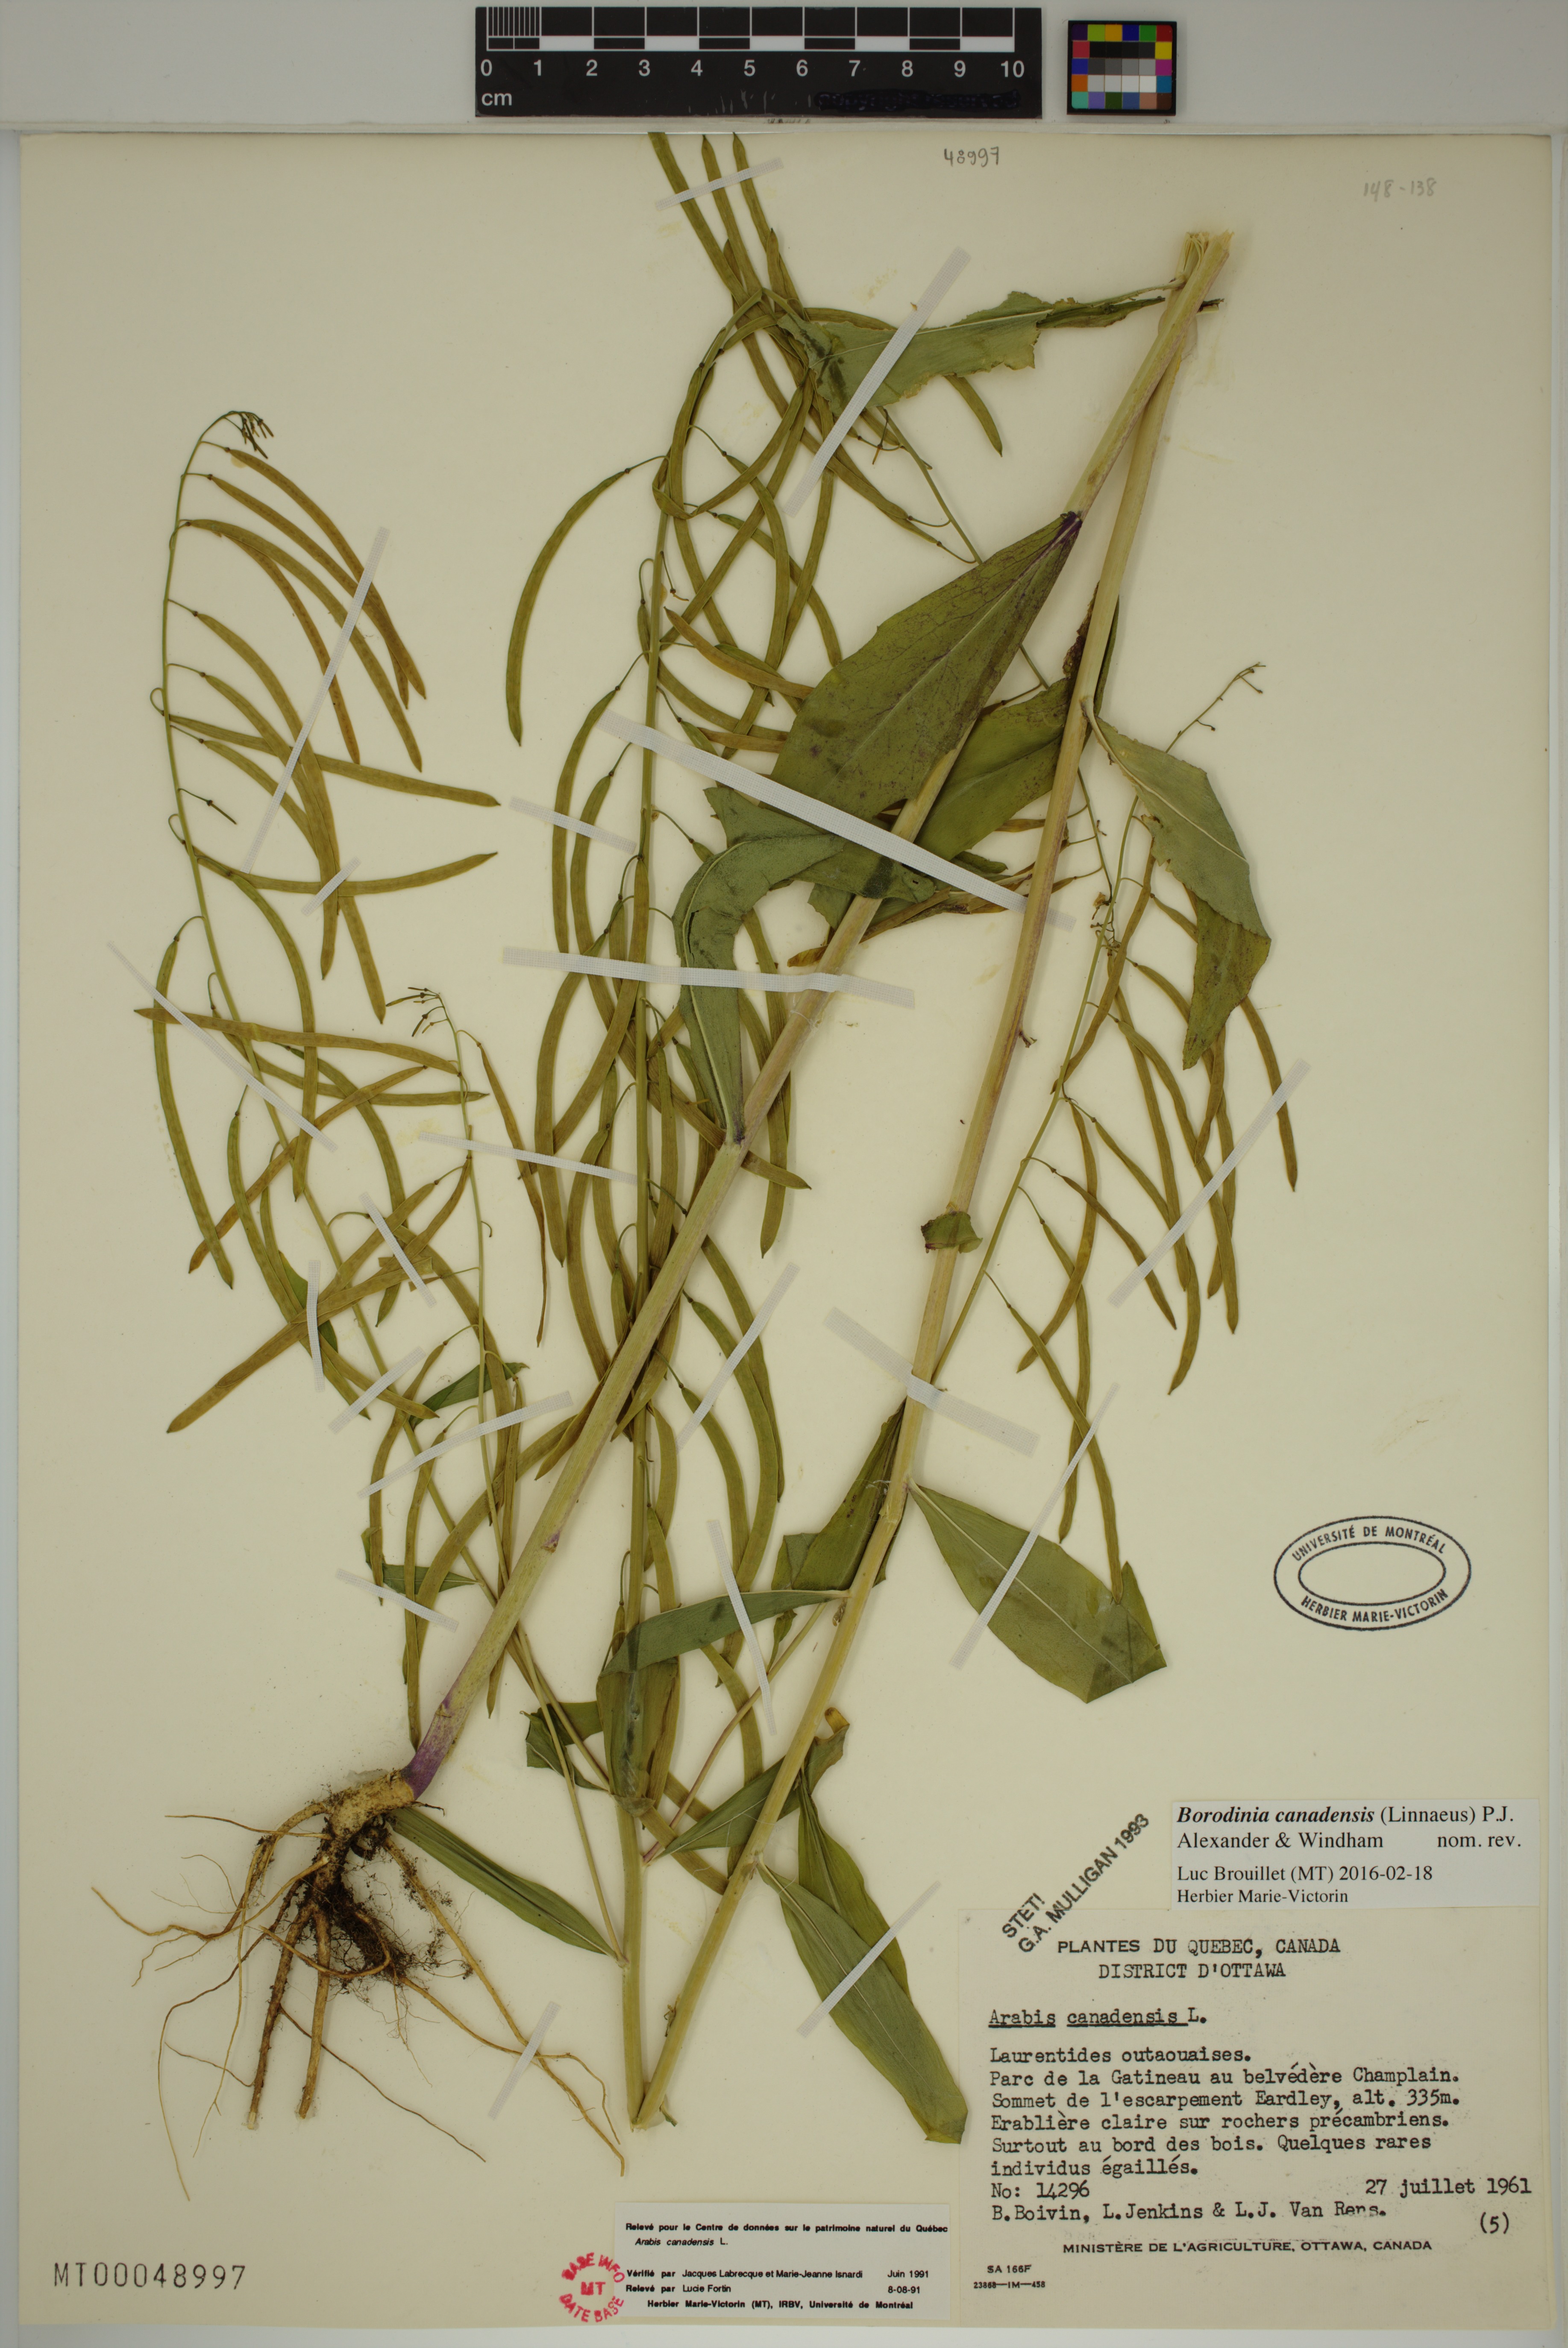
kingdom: Plantae
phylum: Tracheophyta
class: Magnoliopsida
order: Brassicales
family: Brassicaceae
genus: Borodinia
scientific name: Borodinia canadensis
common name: Sicklepod
